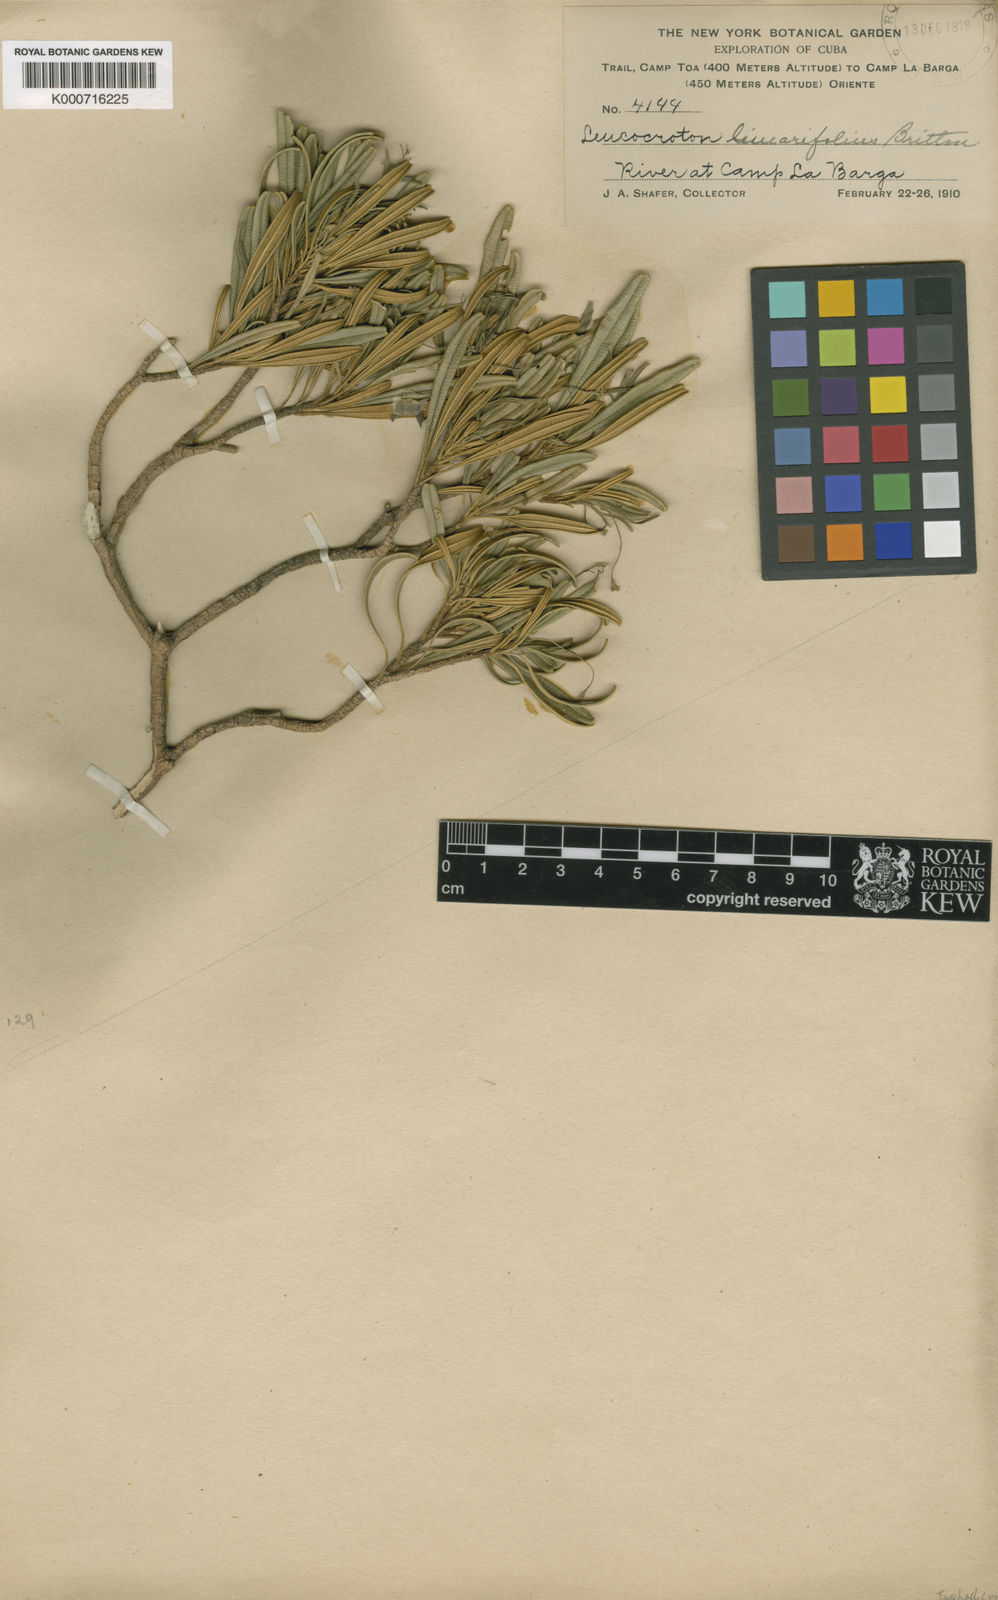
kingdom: Plantae
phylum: Tracheophyta
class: Magnoliopsida
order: Malpighiales
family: Euphorbiaceae
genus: Leucocroton
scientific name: Leucocroton linearifolius
